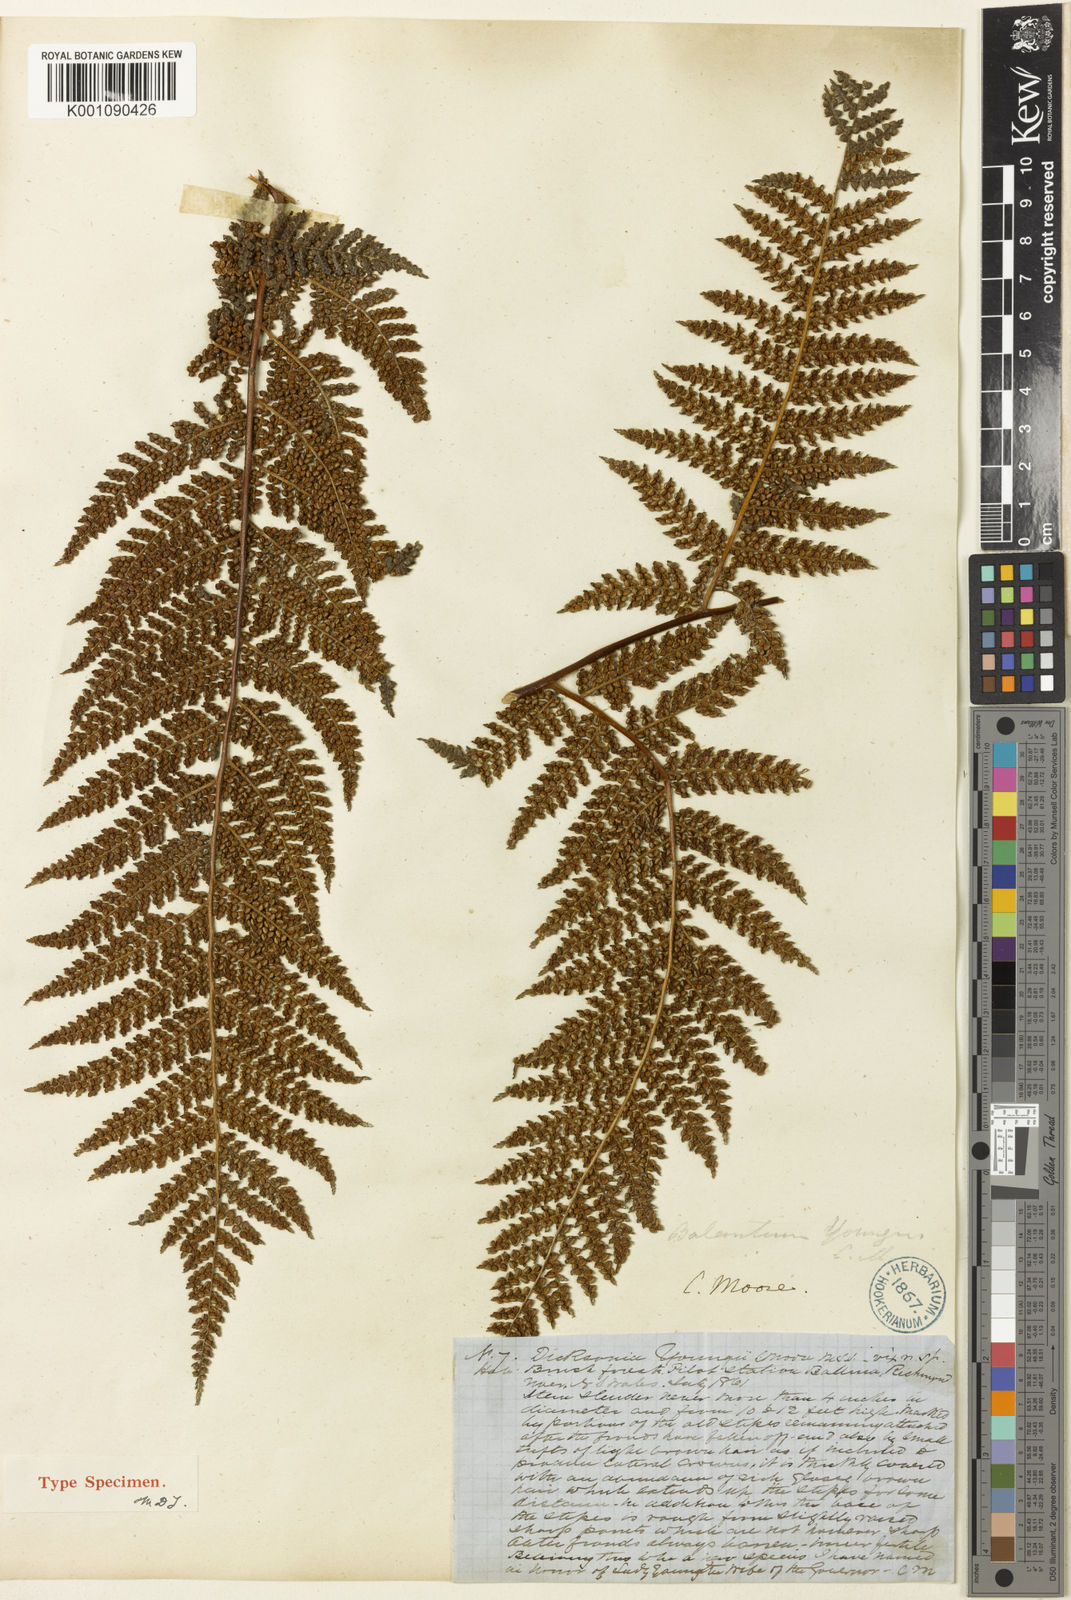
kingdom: Plantae
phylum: Tracheophyta
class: Polypodiopsida
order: Cyatheales
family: Dicksoniaceae
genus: Dicksonia
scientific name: Dicksonia
